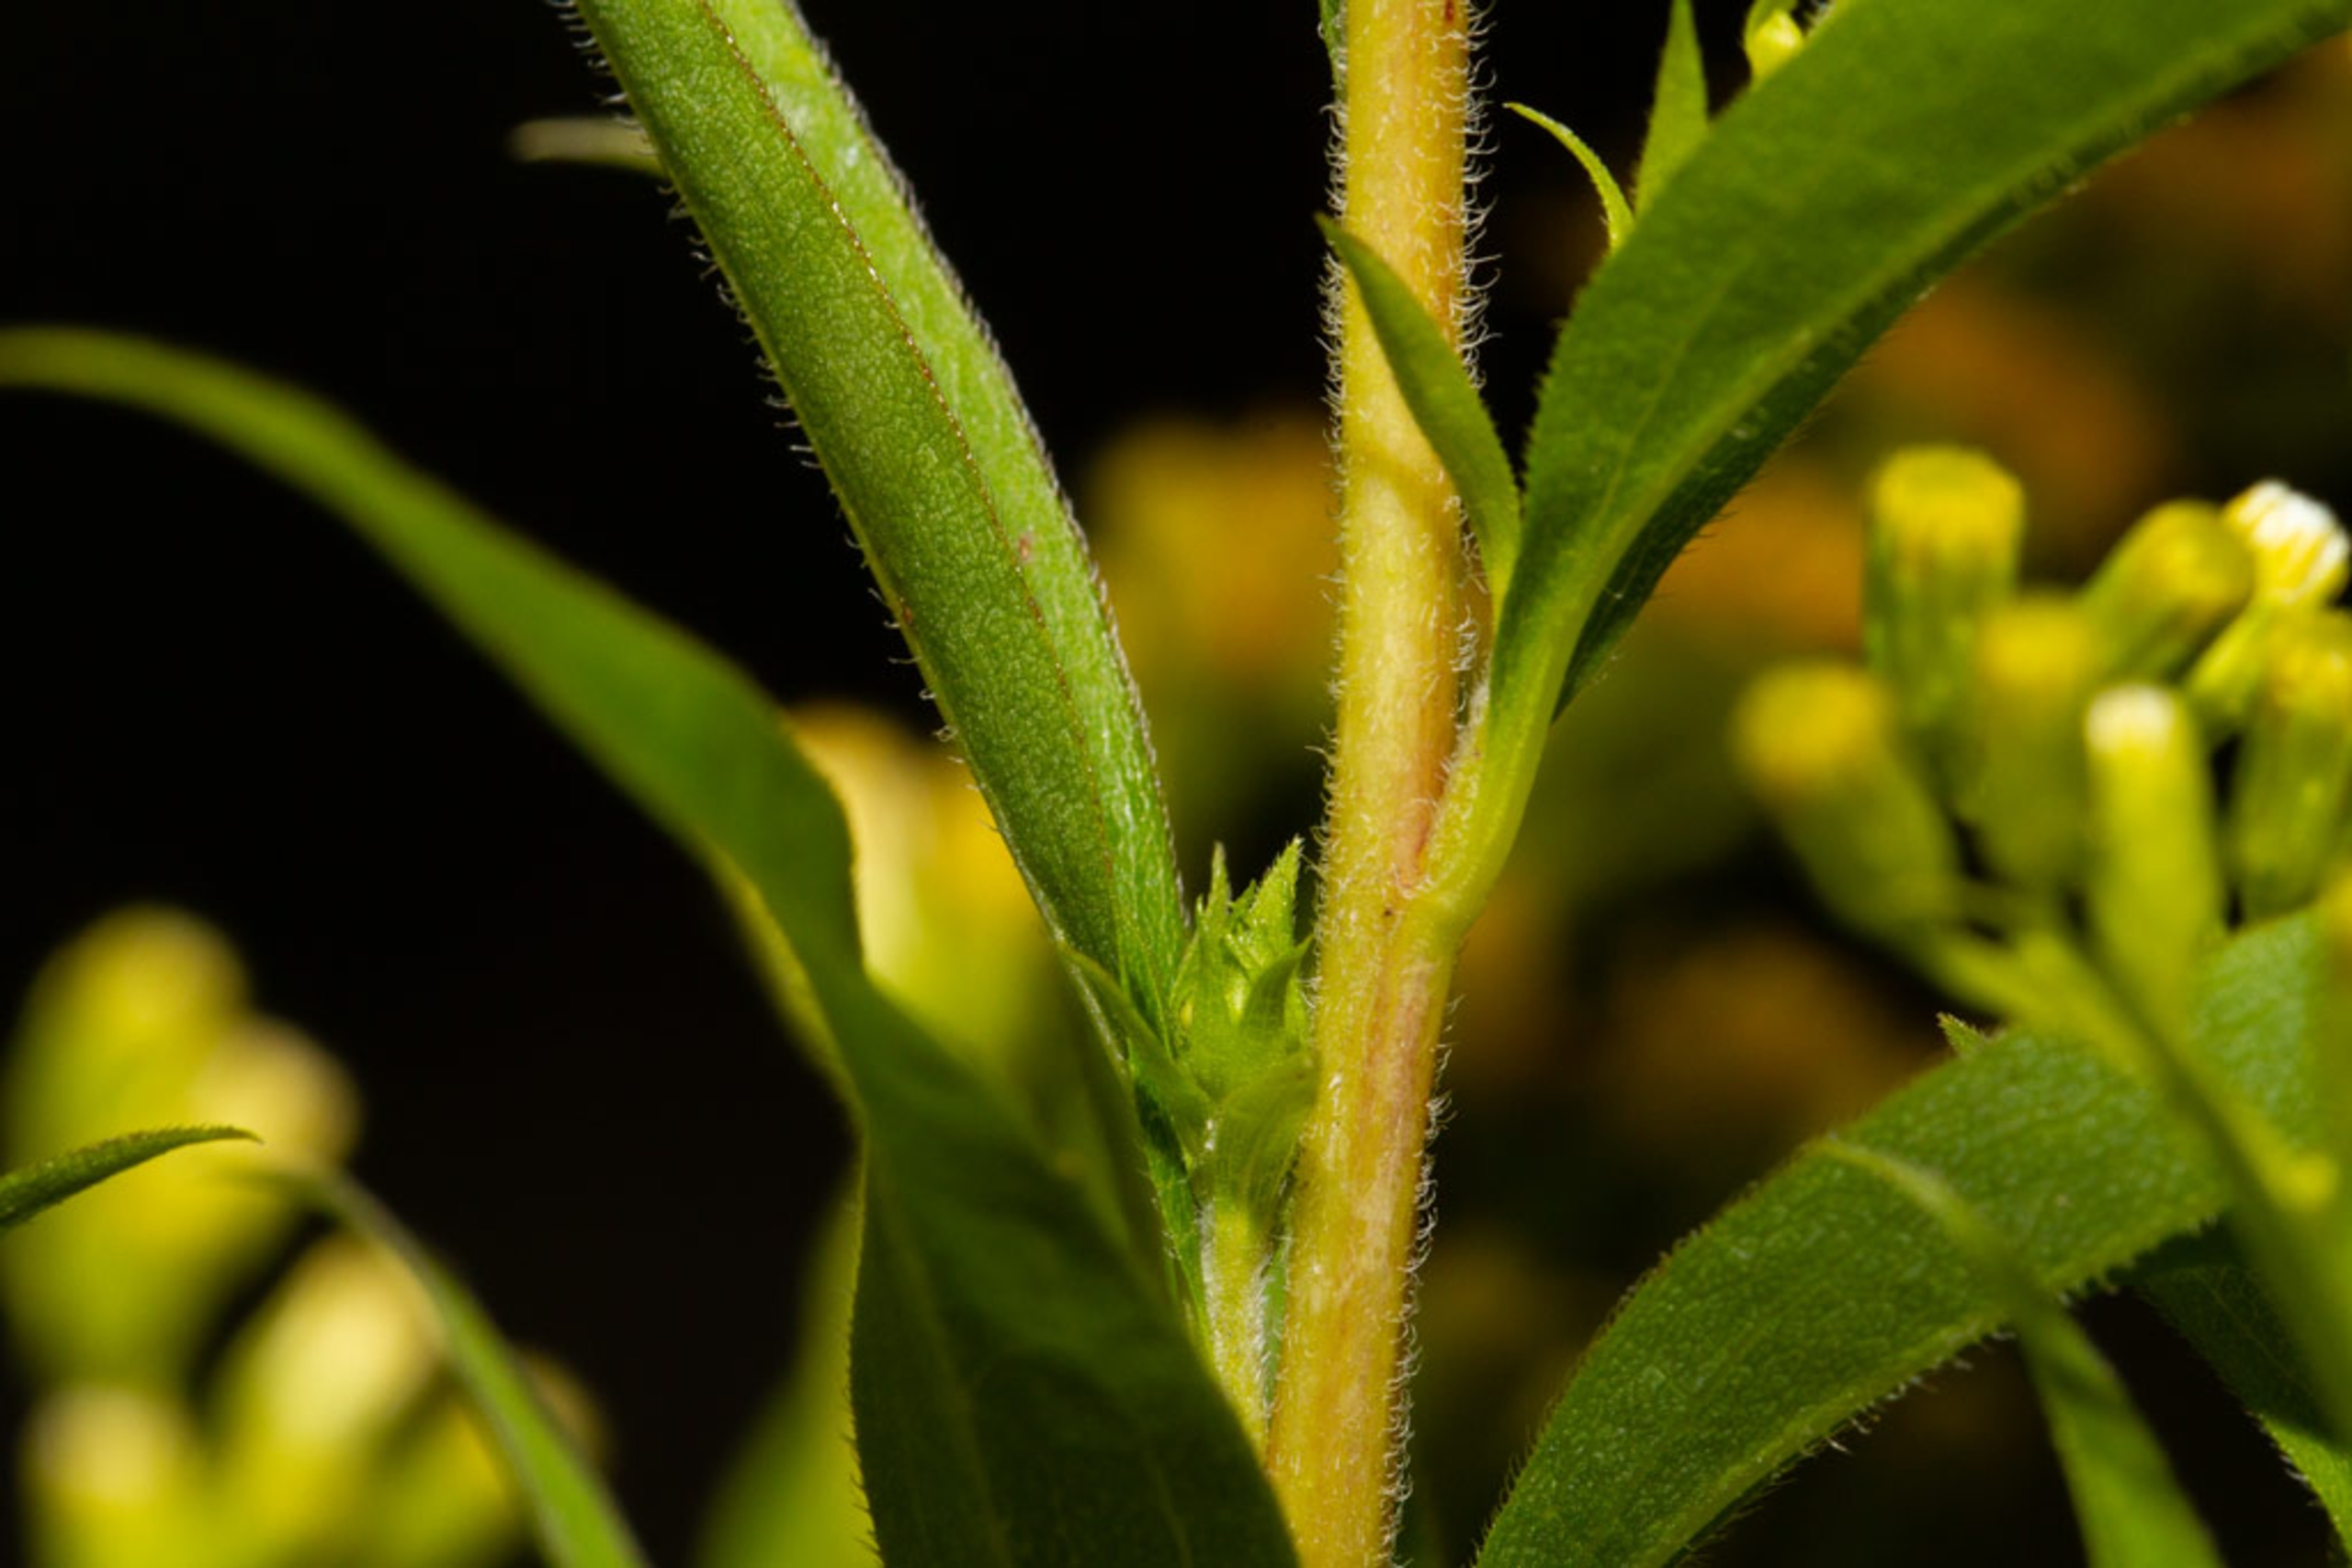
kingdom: Plantae
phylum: Tracheophyta
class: Magnoliopsida
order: Asterales
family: Asteraceae
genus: Solidago
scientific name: Solidago canadensis
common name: Kanadisk gyldenris
